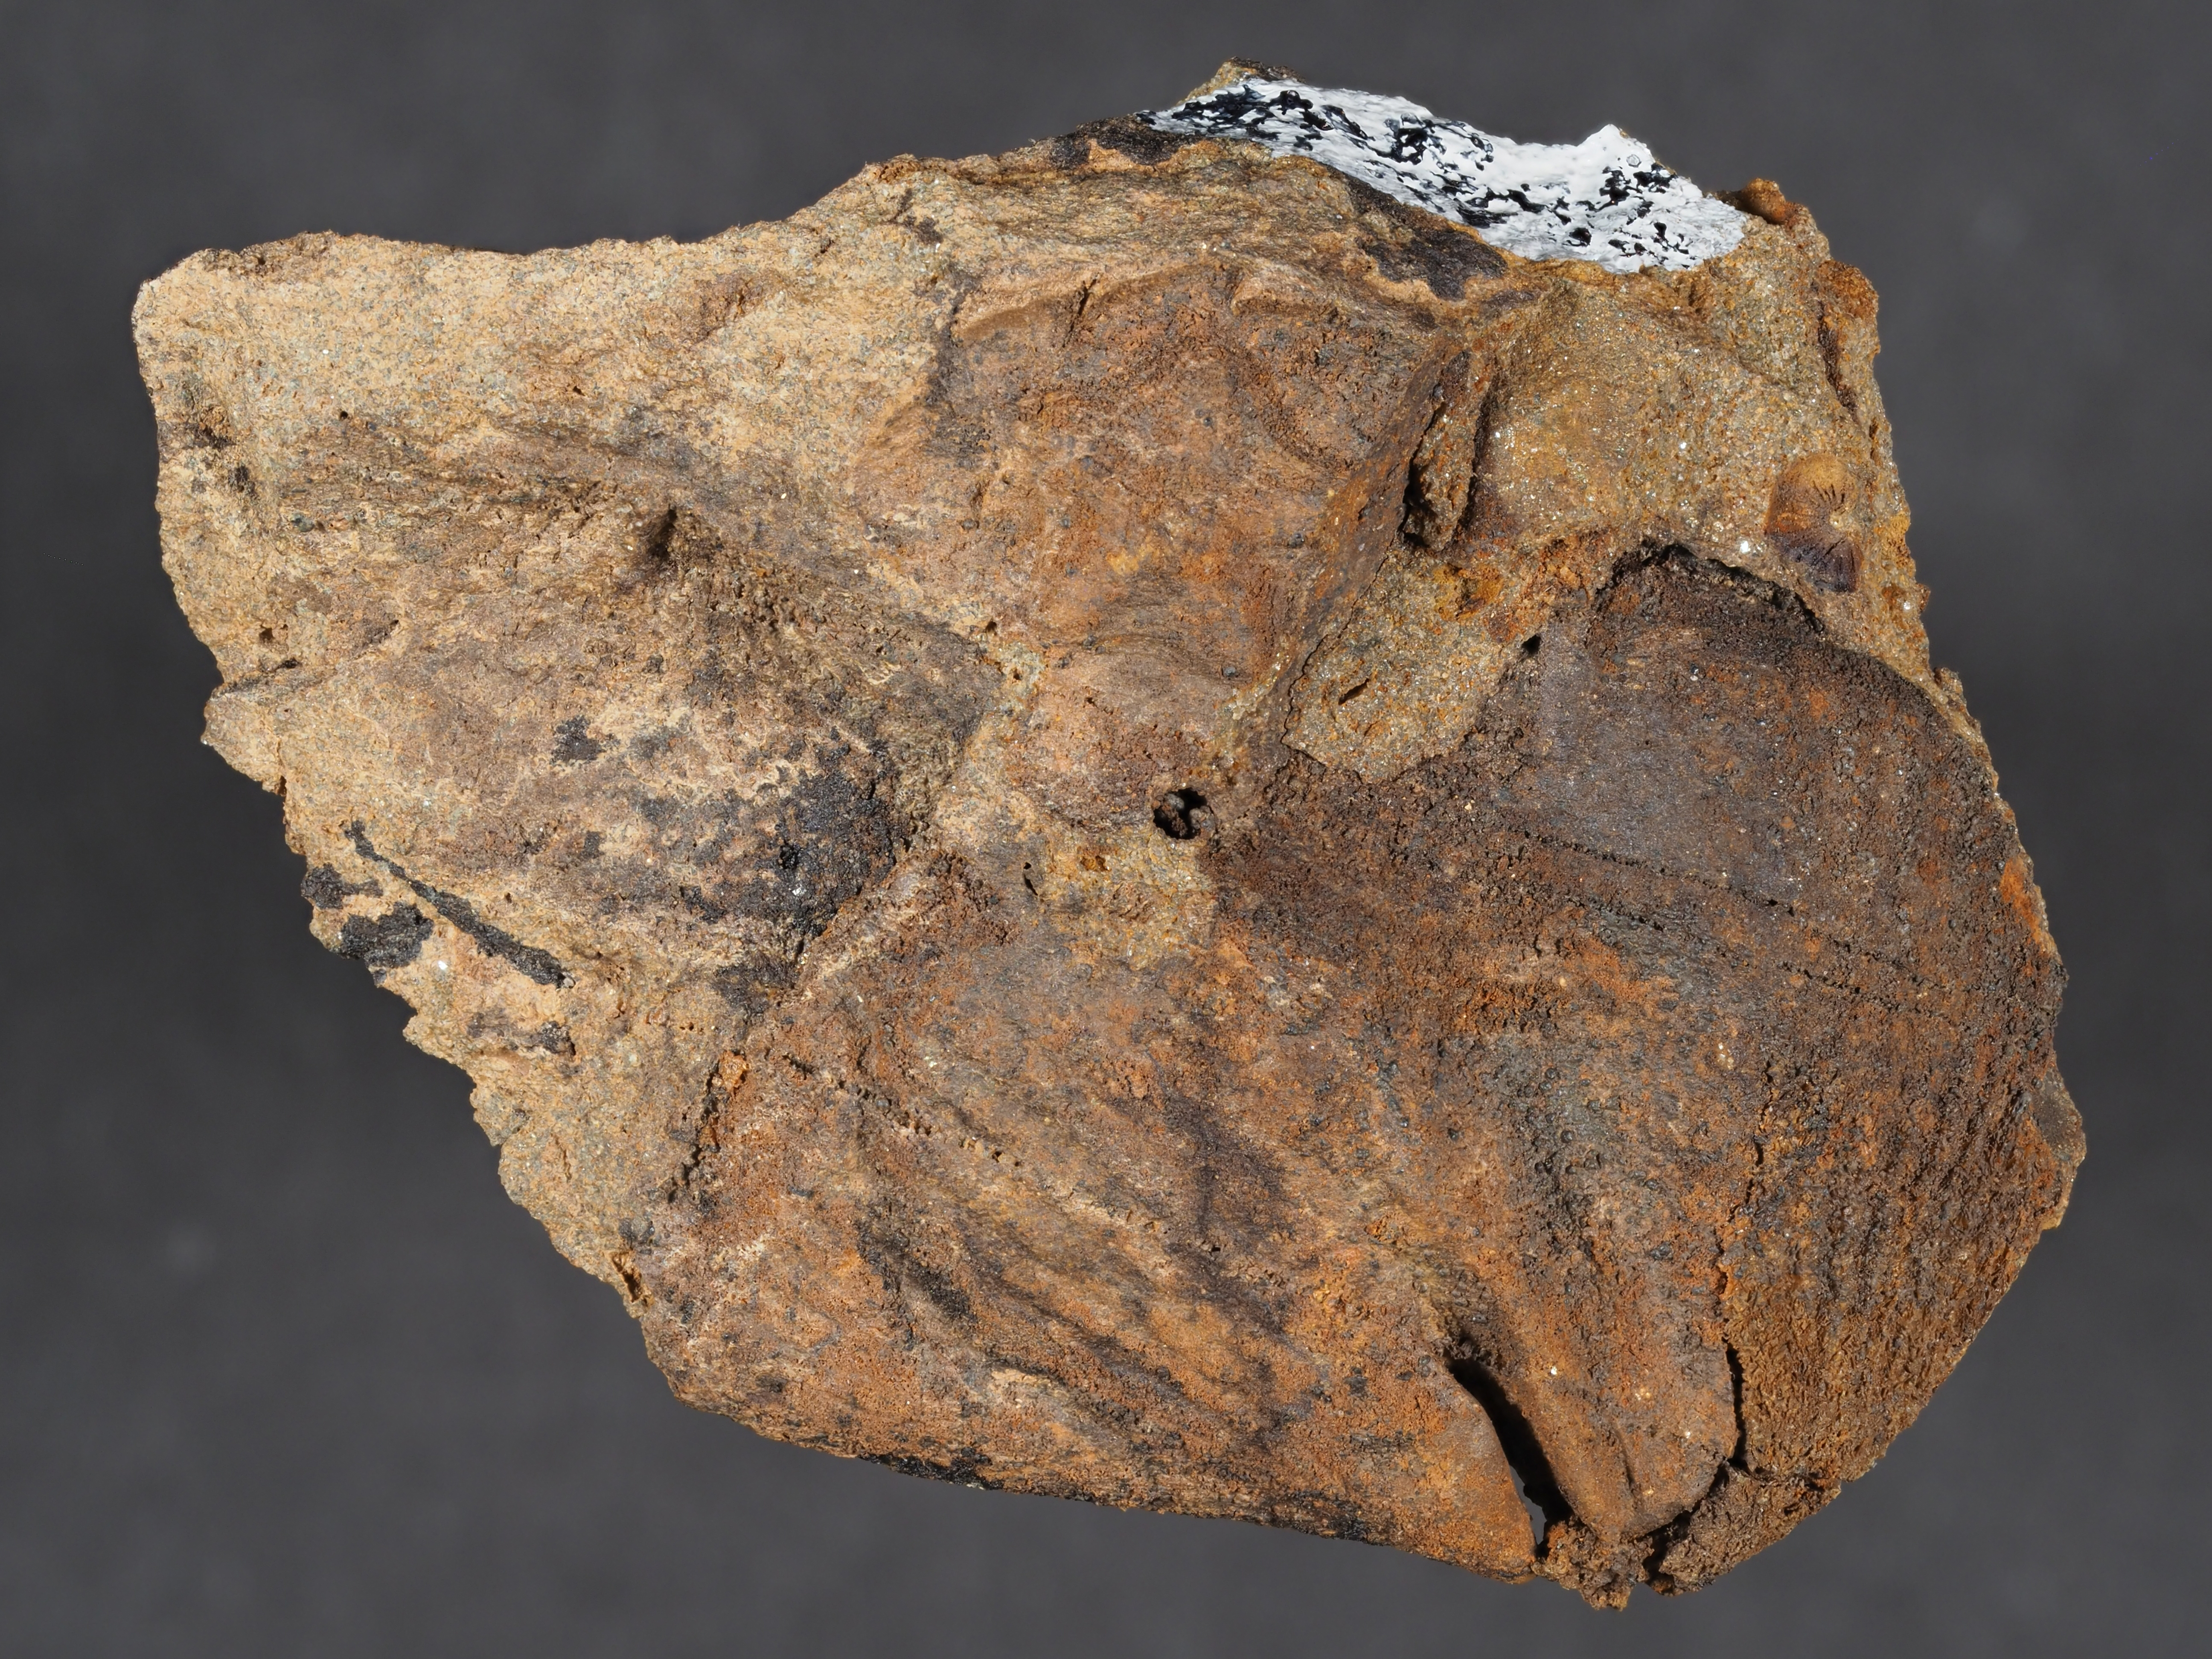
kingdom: Animalia
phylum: Brachiopoda
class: Rhynchonellata
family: Spinocyrtiidae
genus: Subcuspidella
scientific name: Subcuspidella
